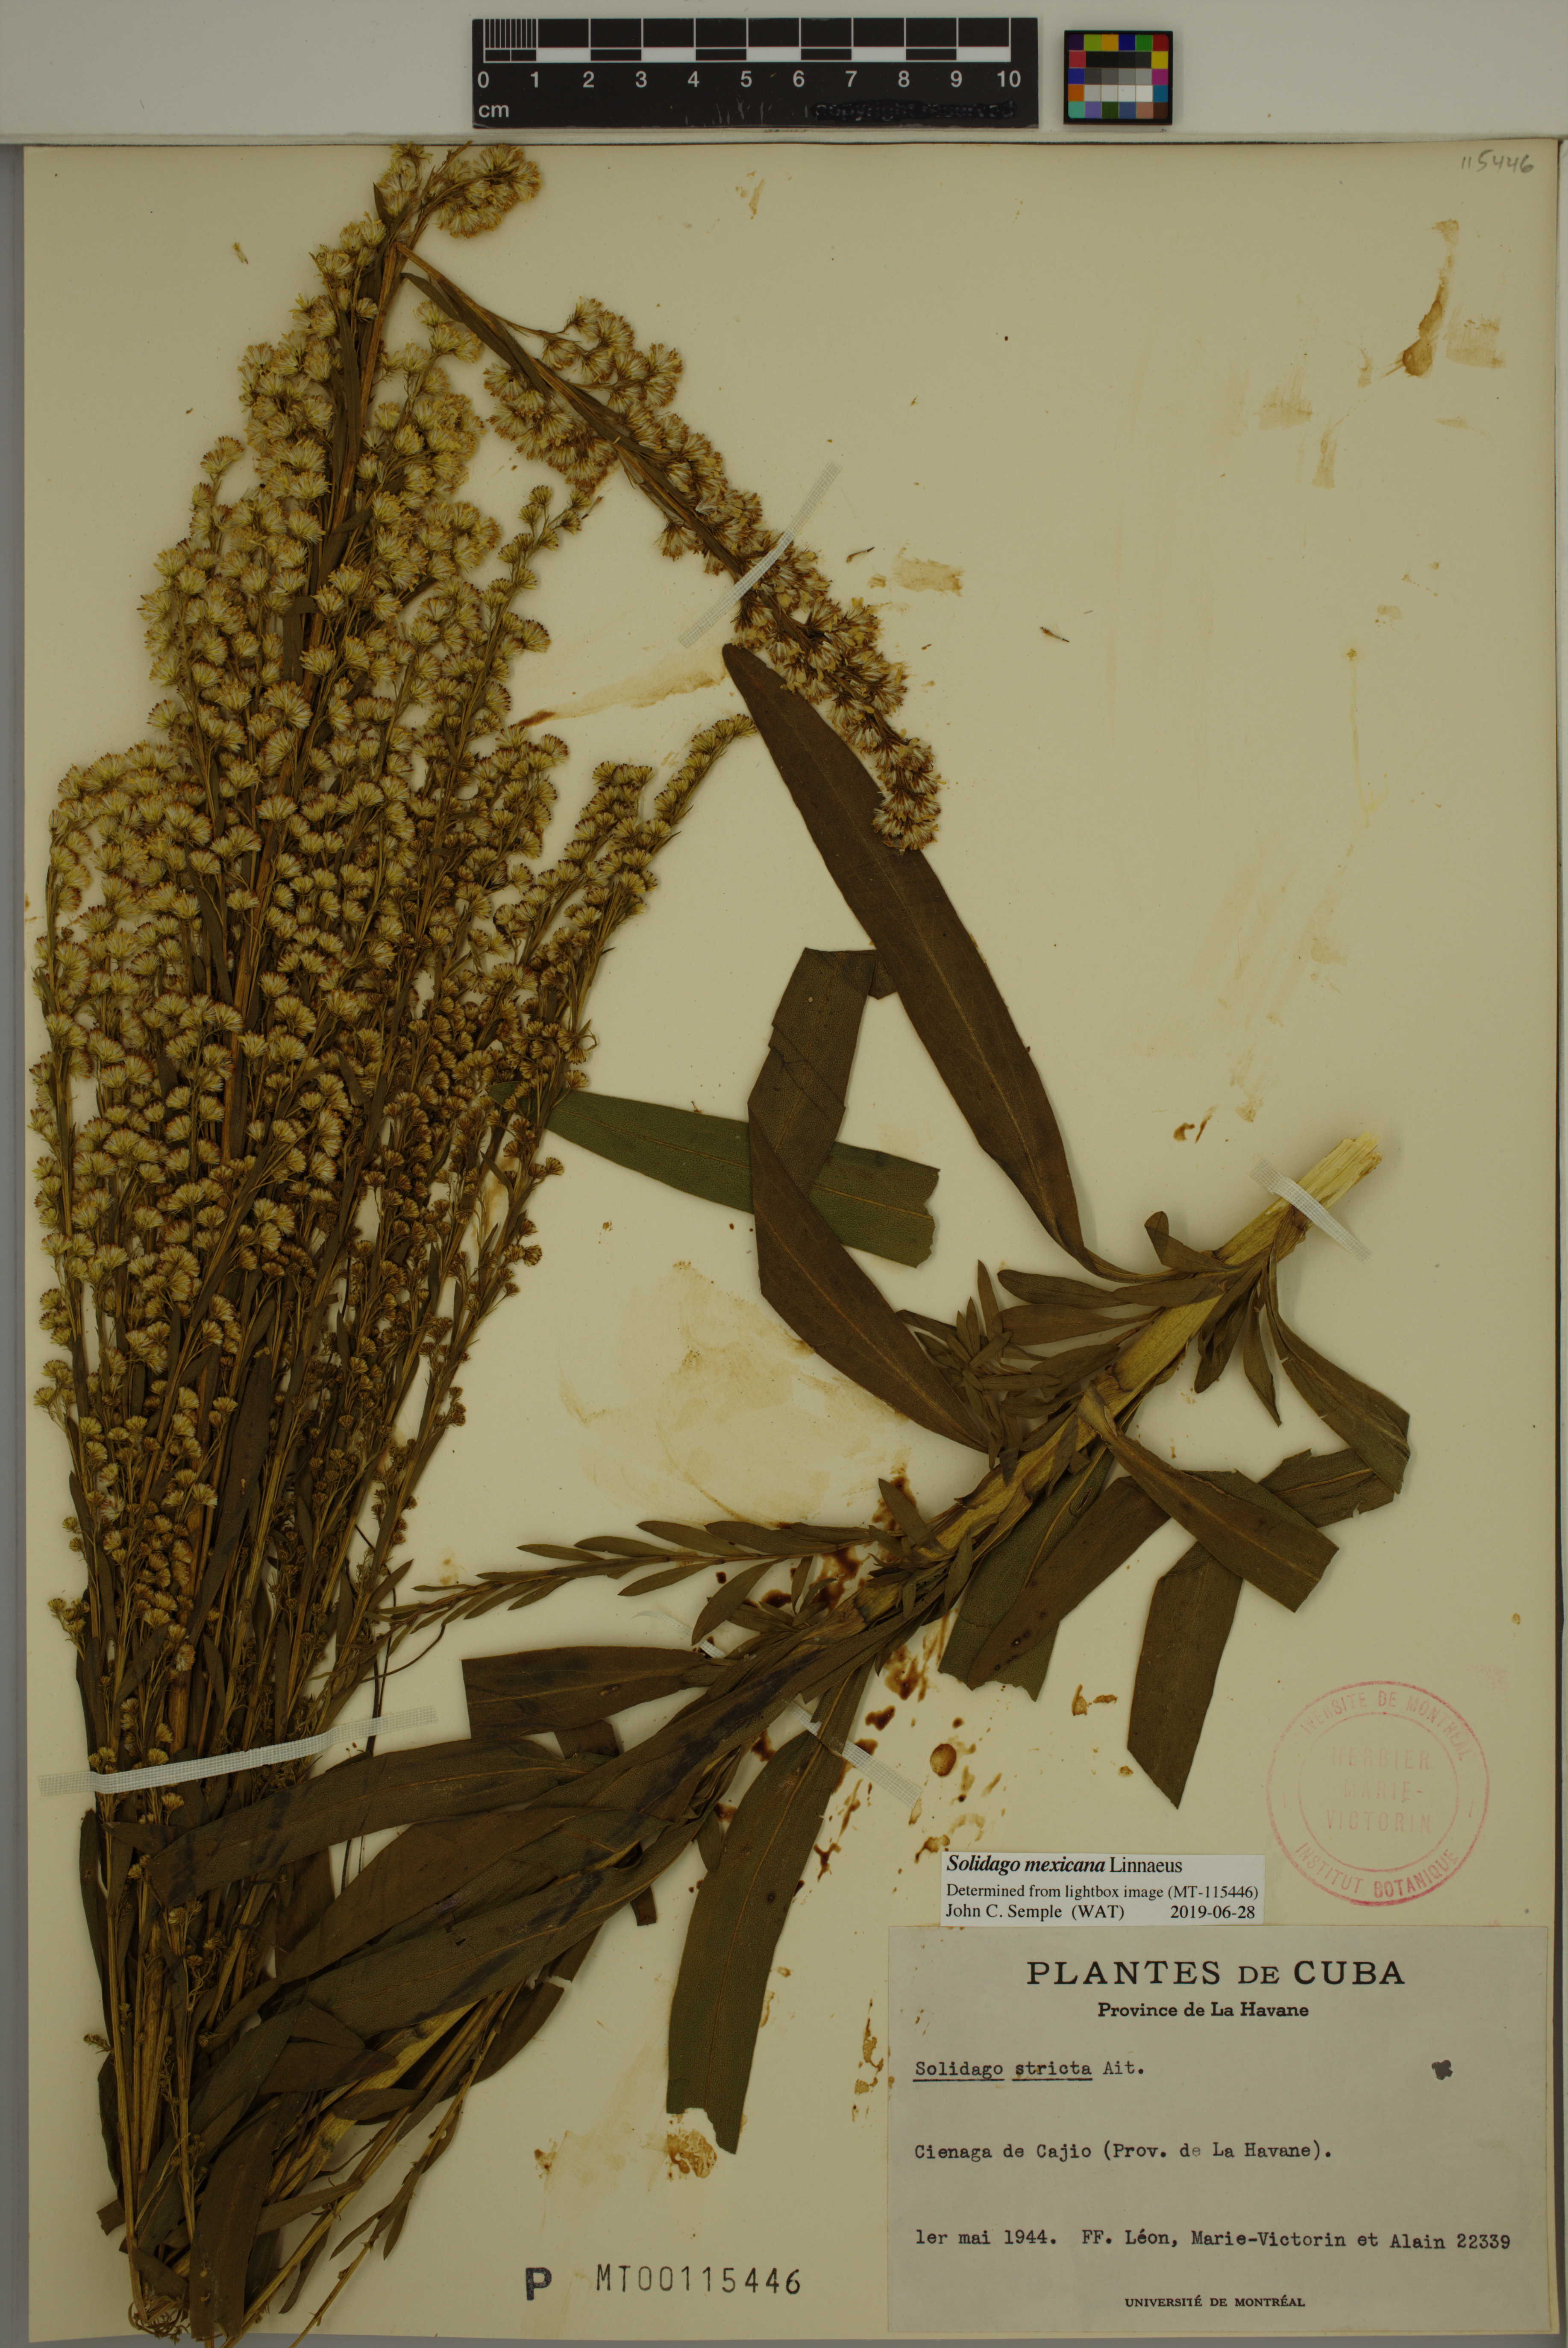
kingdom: Plantae
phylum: Tracheophyta
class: Magnoliopsida
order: Asterales
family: Asteraceae
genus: Solidago
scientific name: Solidago mexicana
